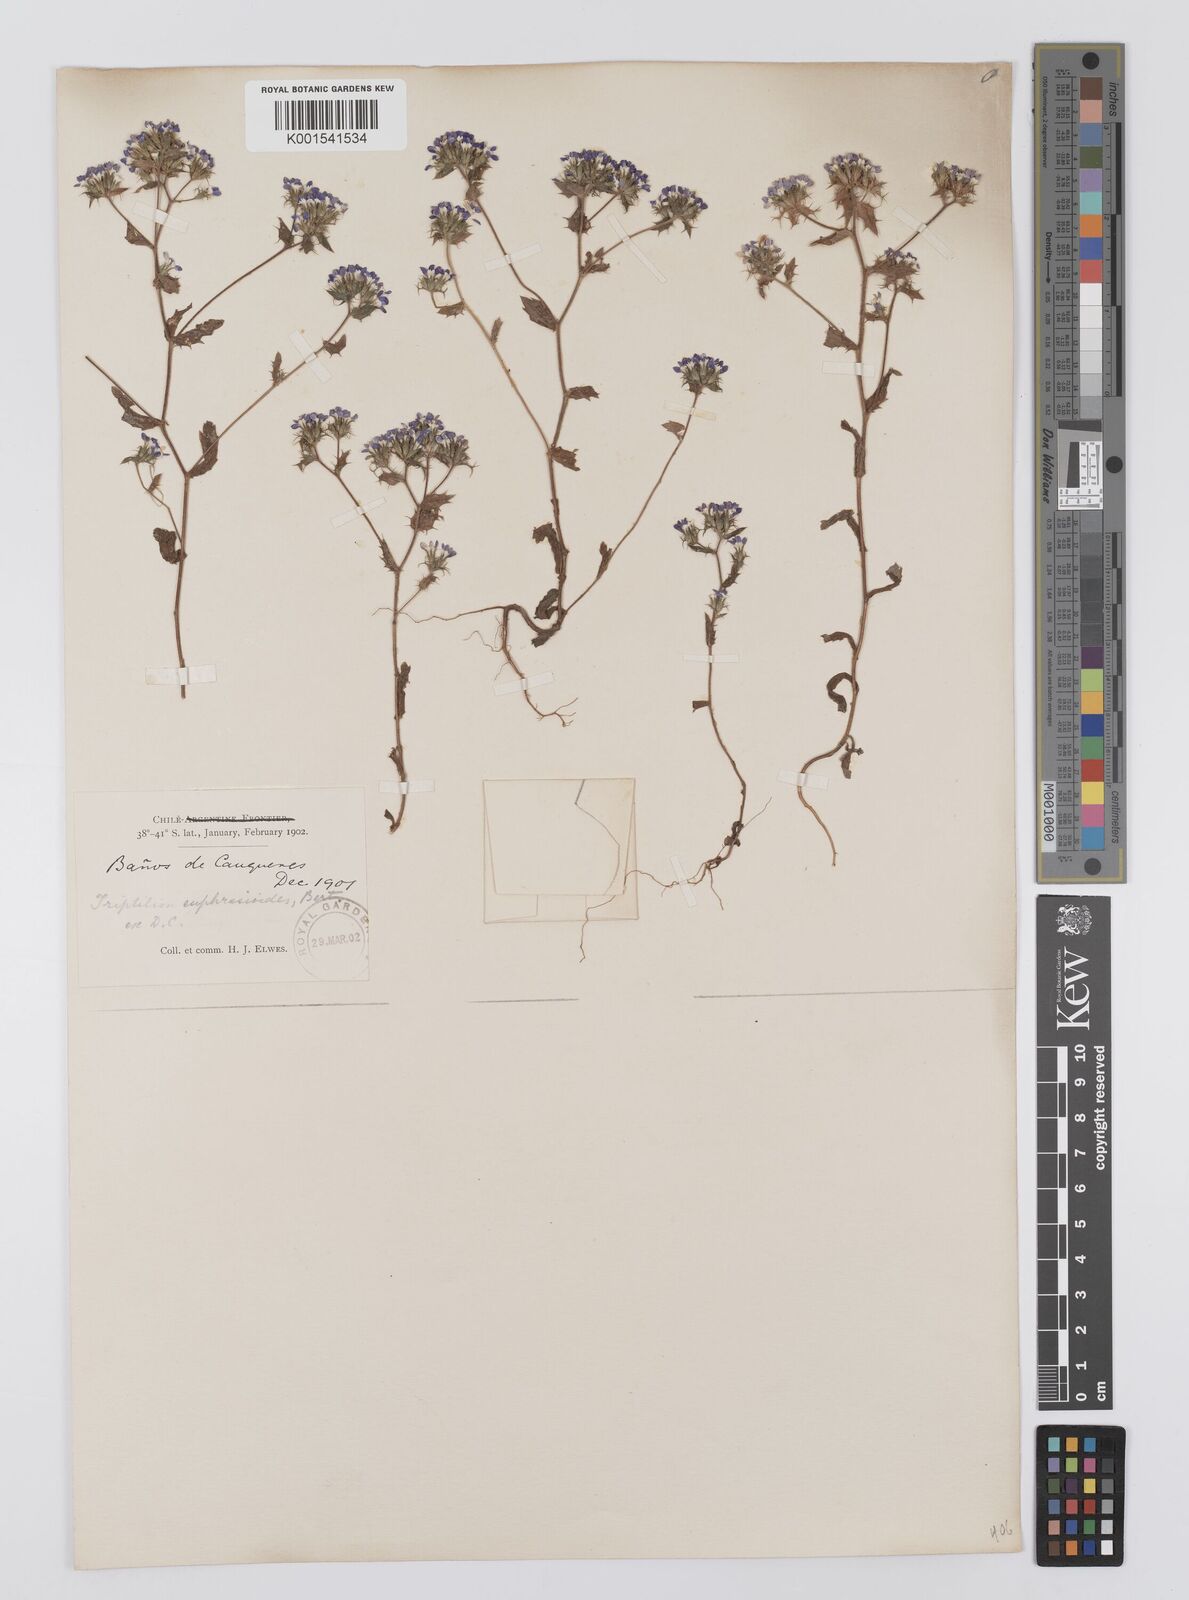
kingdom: Plantae
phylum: Tracheophyta
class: Magnoliopsida
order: Asterales
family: Asteraceae
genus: Triptilion
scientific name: Triptilion achilleae
